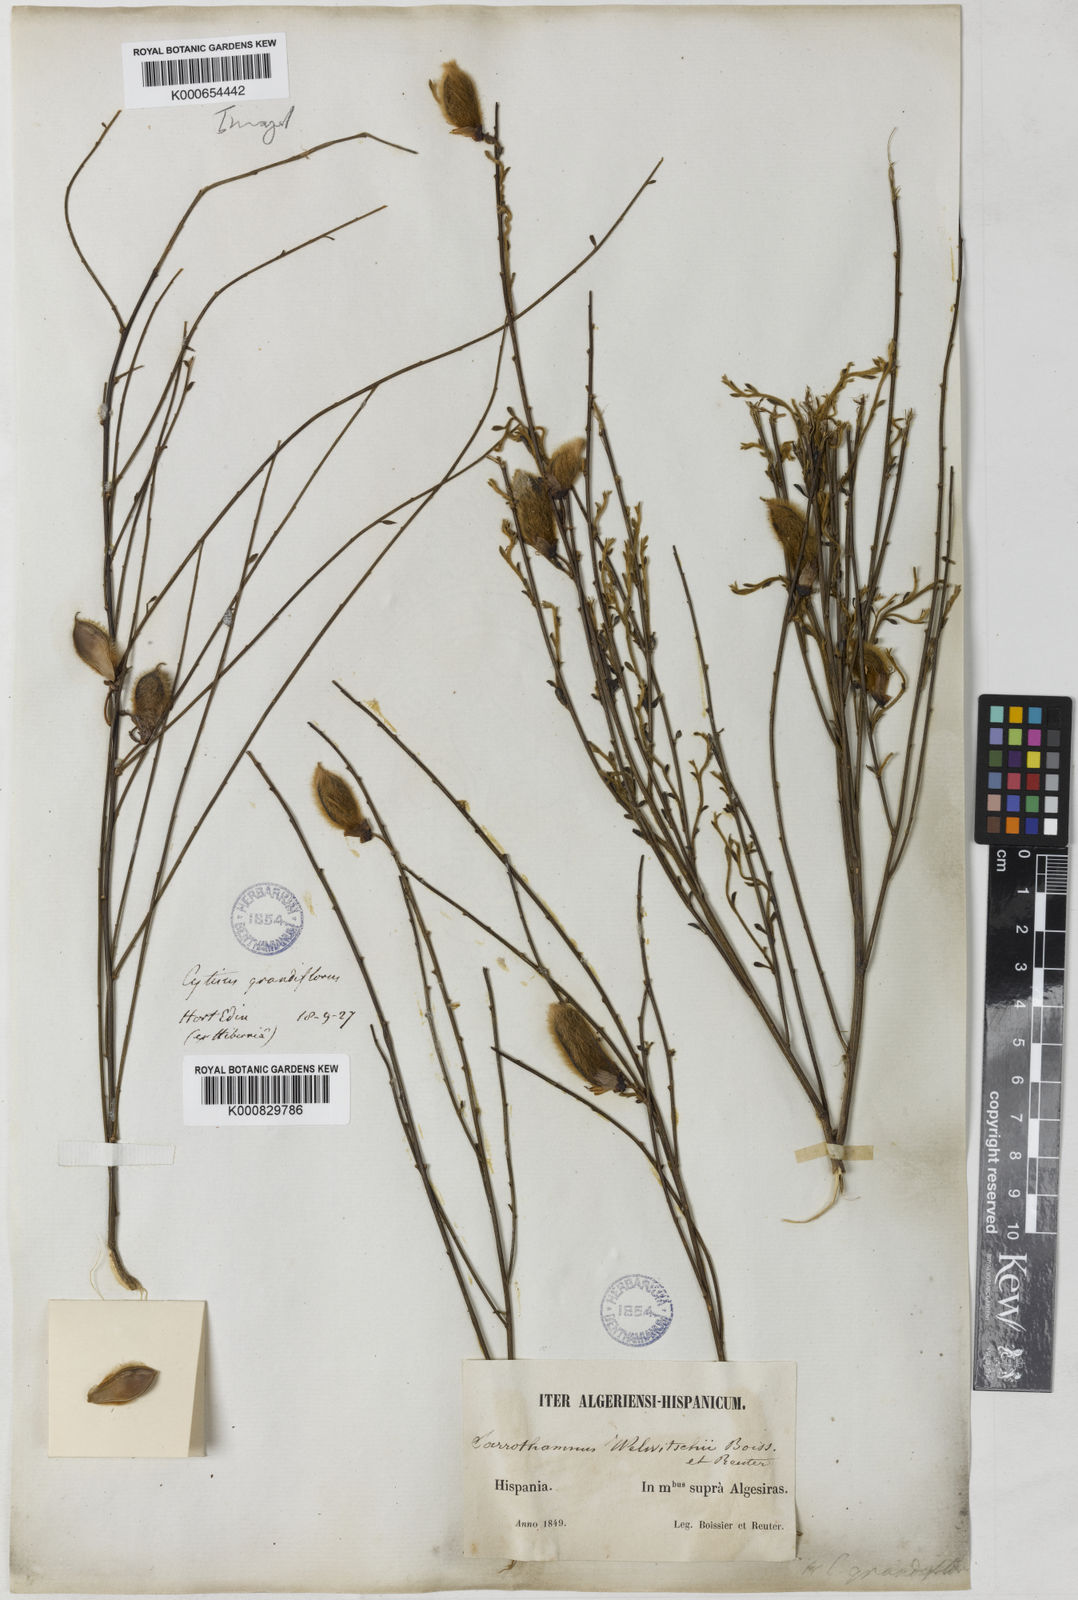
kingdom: Plantae
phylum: Tracheophyta
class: Magnoliopsida
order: Fabales
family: Fabaceae
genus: Cytisus
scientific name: Cytisus striatus
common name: Hairy-fruited broom
